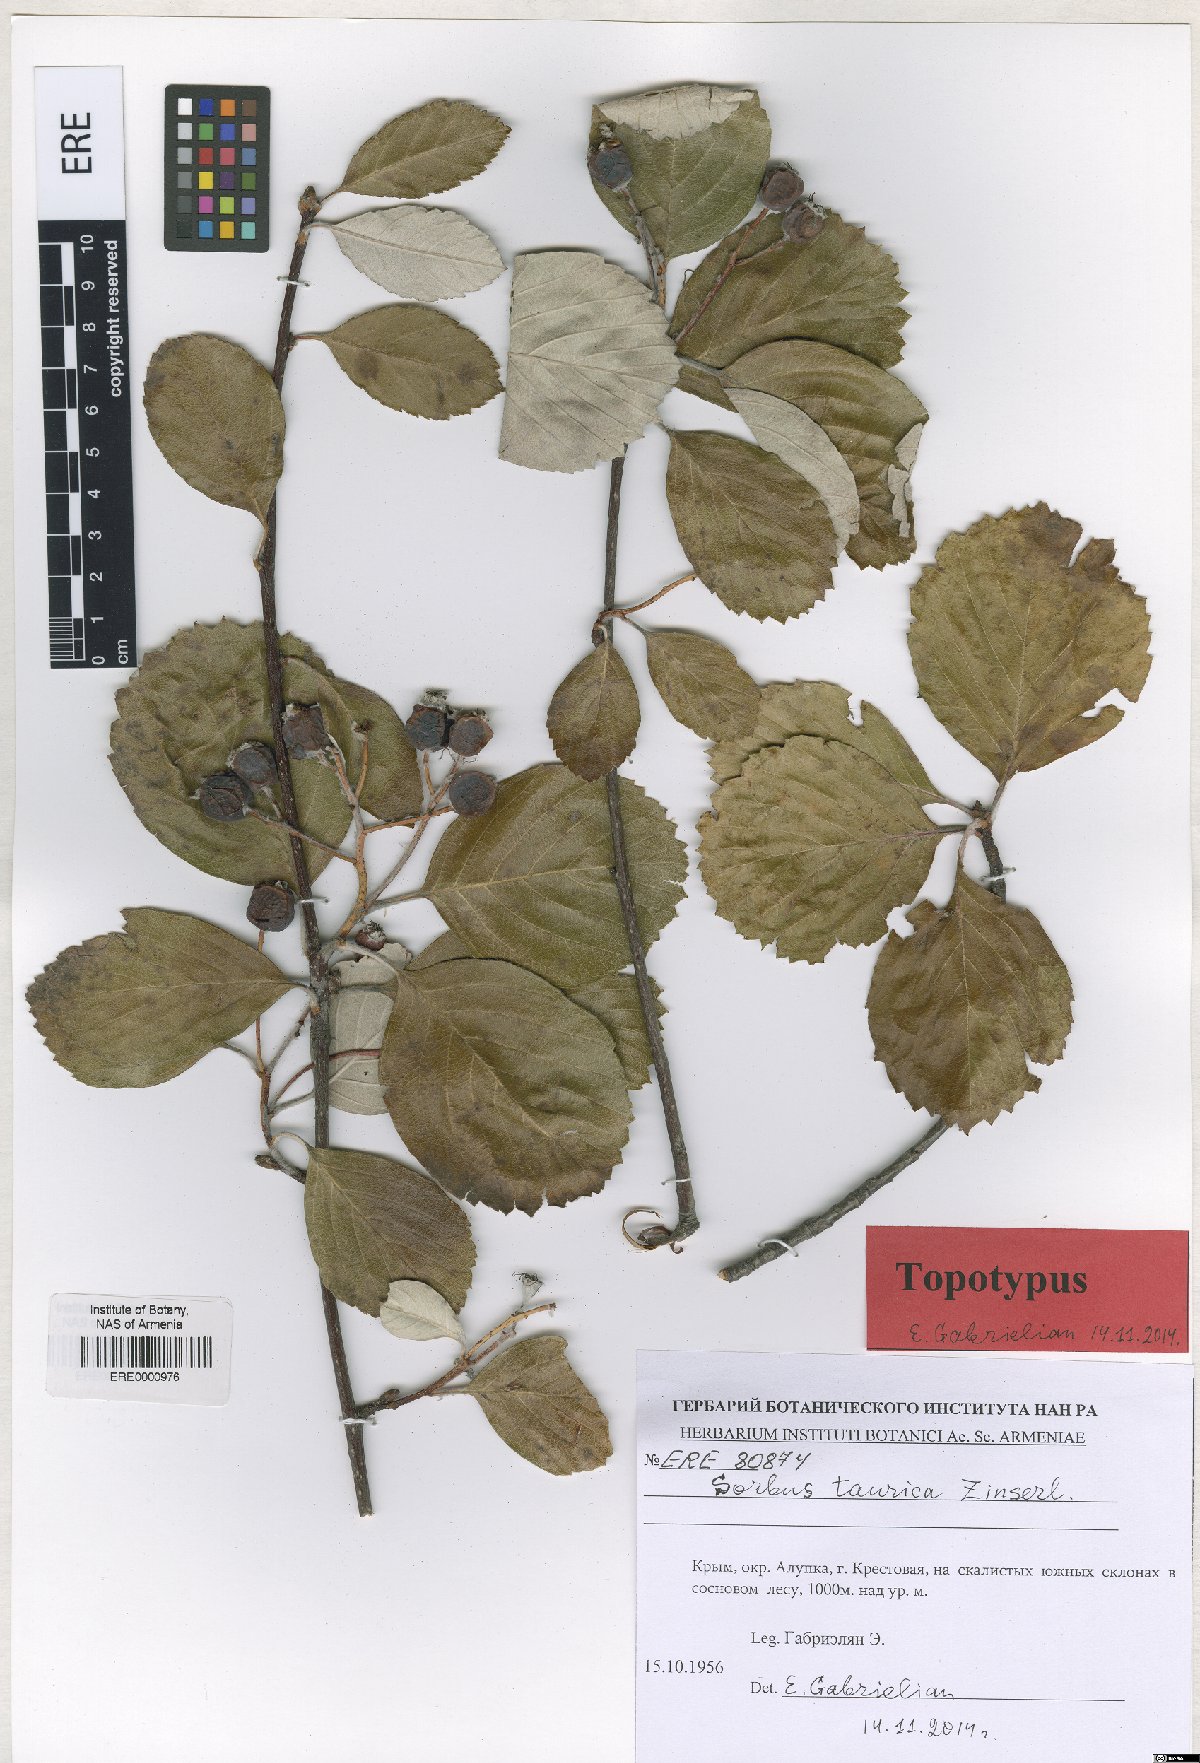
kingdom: Plantae
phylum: Tracheophyta
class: Magnoliopsida
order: Rosales
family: Rosaceae
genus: Aria
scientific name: Aria taurica
